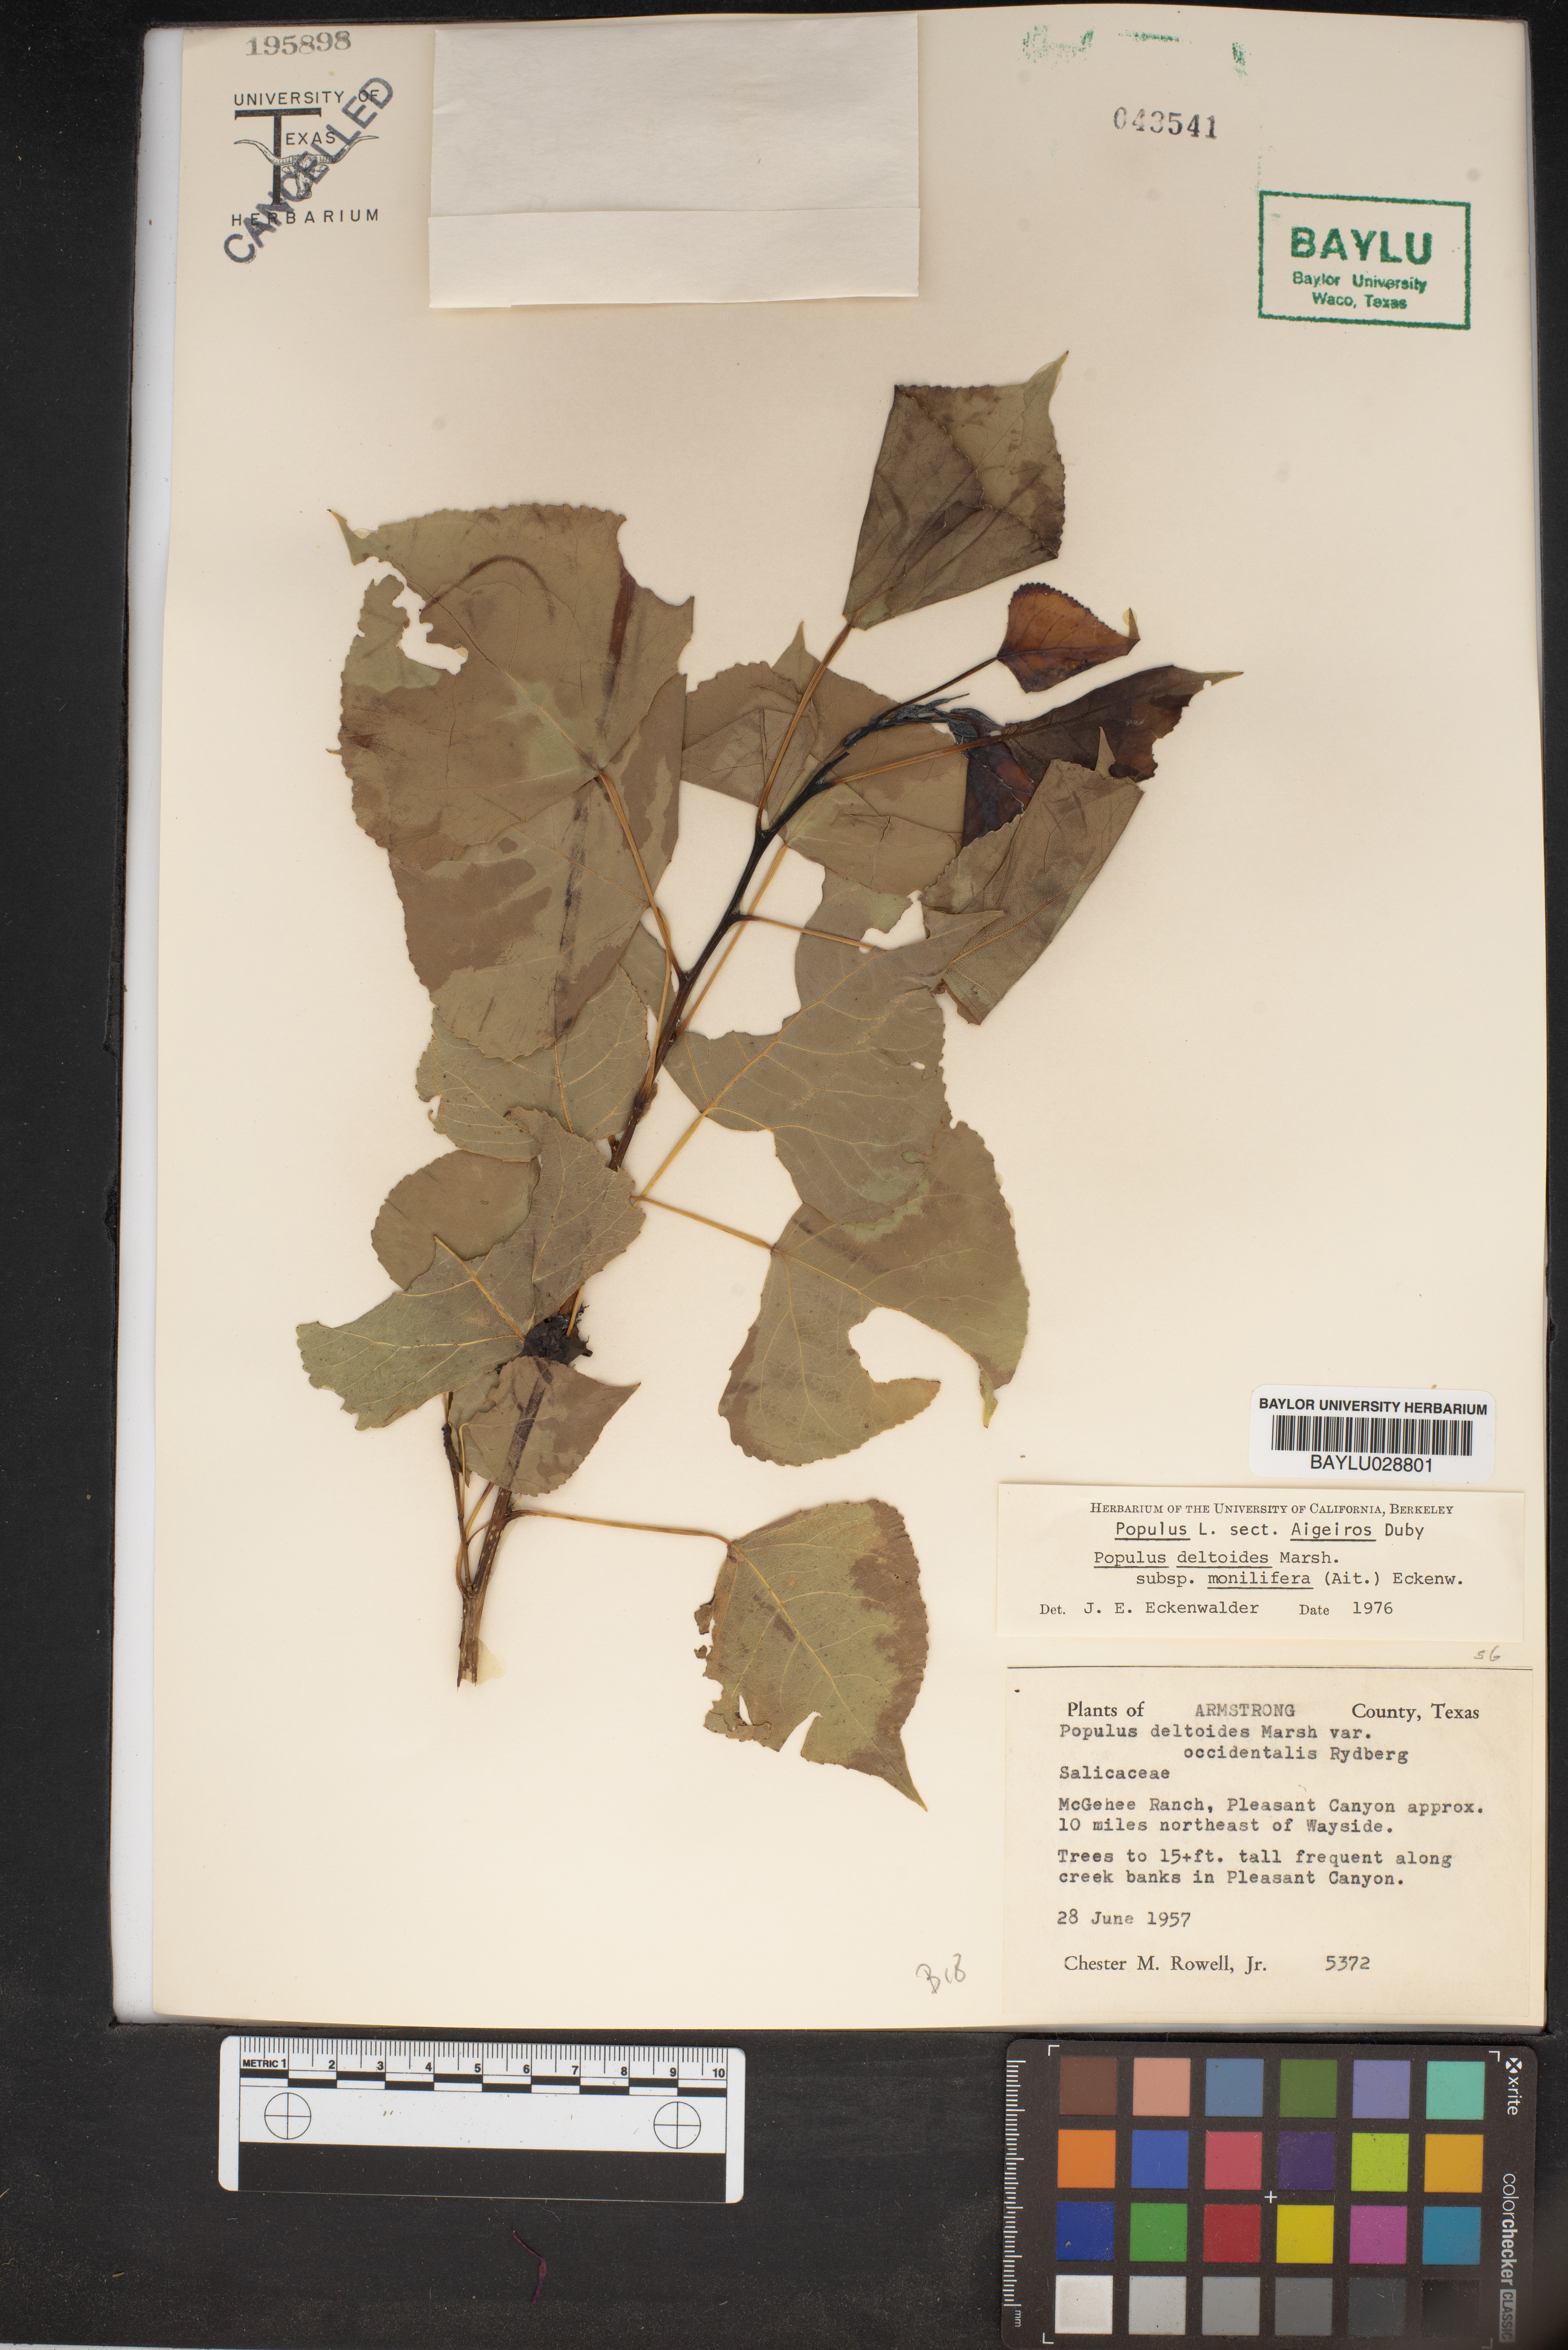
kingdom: Plantae
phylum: Tracheophyta
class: Magnoliopsida
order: Malpighiales
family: Salicaceae
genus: Populus
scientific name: Populus deltoides
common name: Eastern cottonwood
